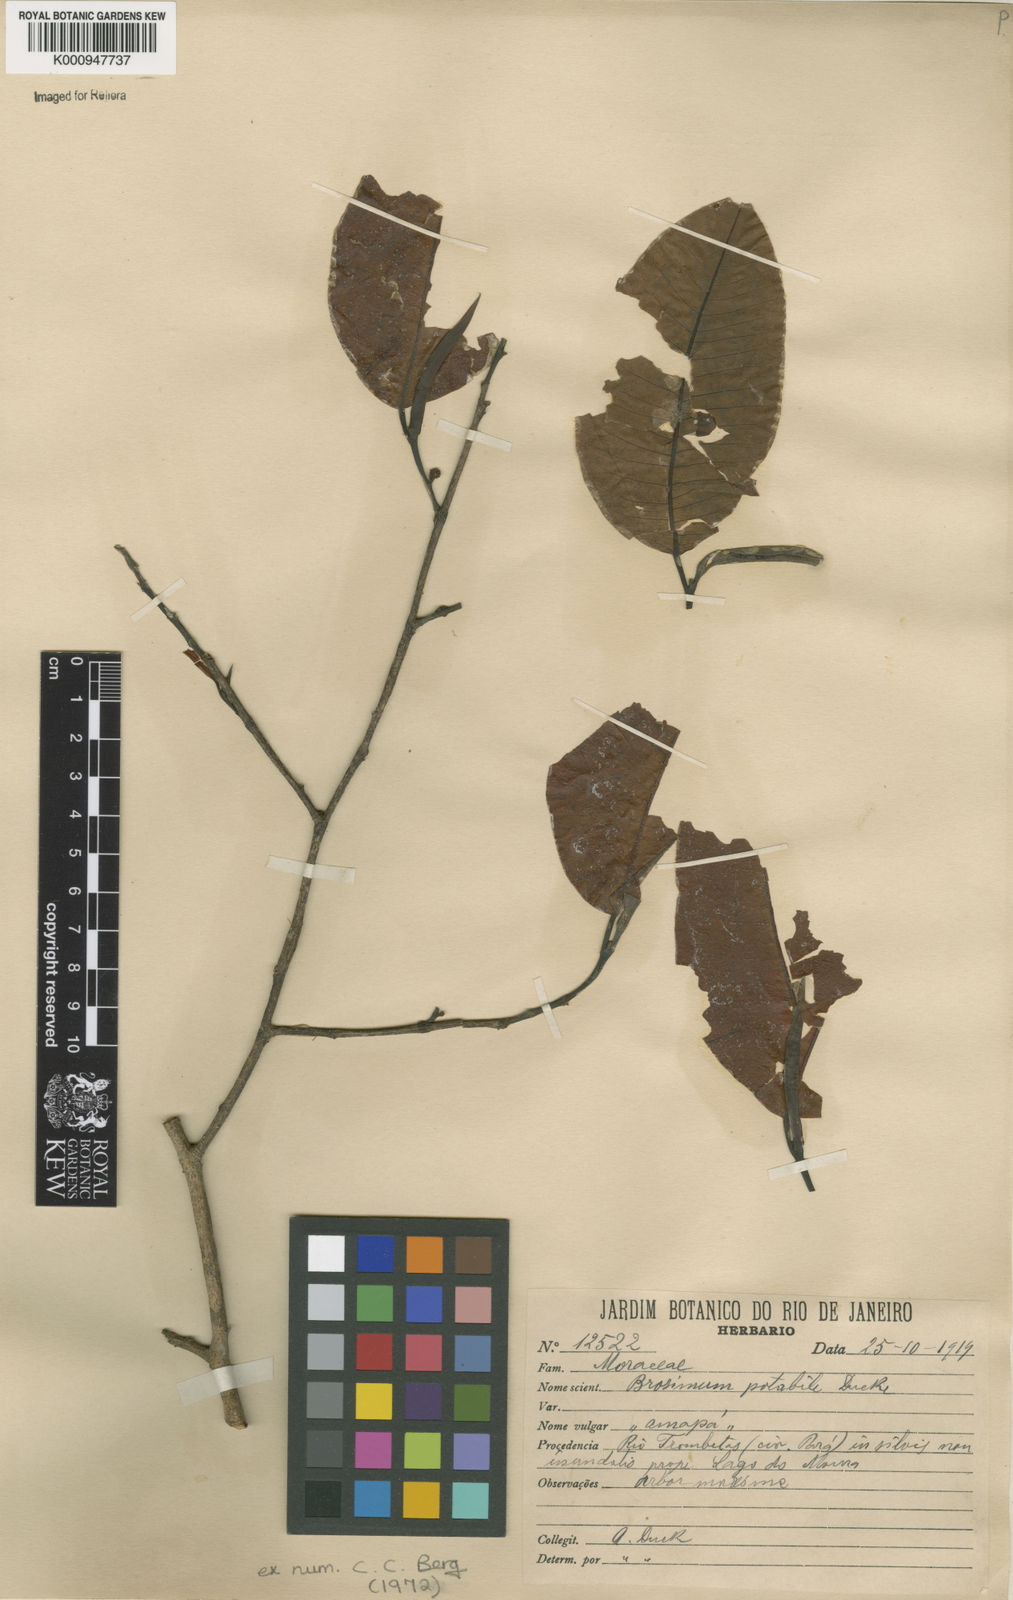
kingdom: Plantae
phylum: Tracheophyta
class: Magnoliopsida
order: Rosales
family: Moraceae
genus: Brosimum
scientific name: Brosimum potabile
